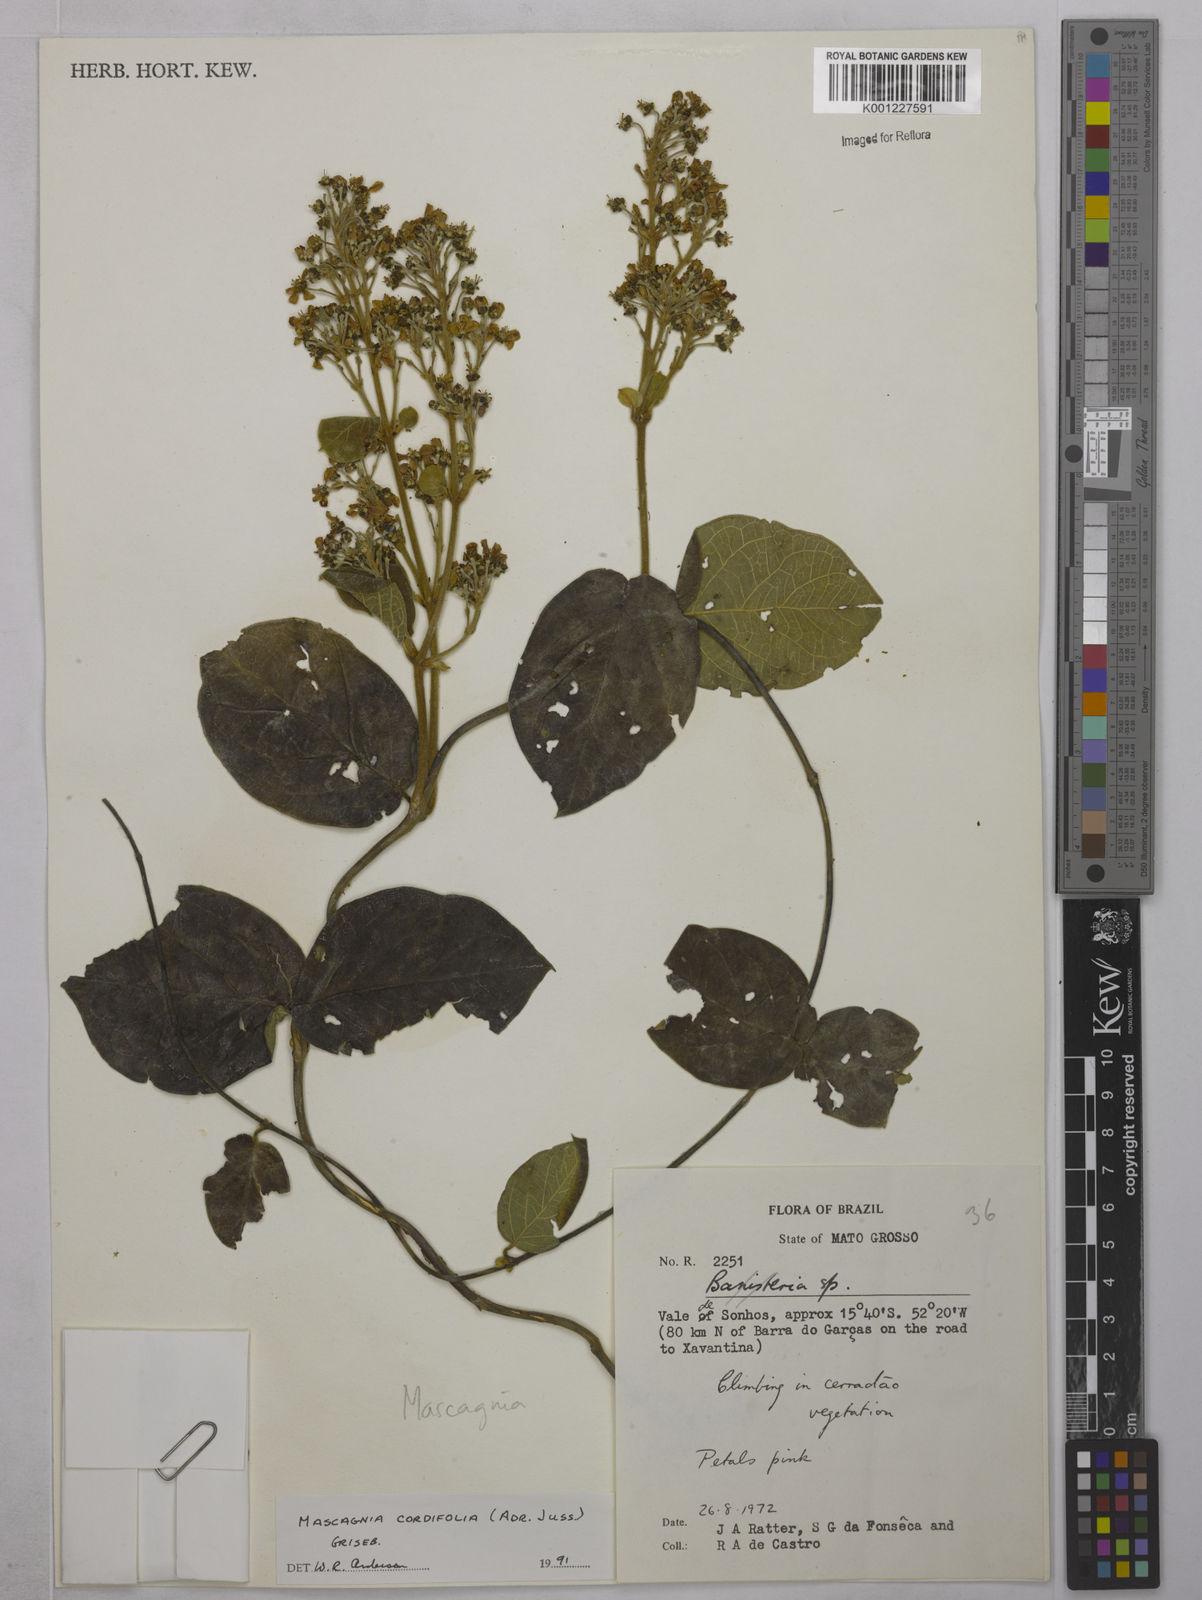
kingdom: Plantae
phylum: Tracheophyta
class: Magnoliopsida
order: Malpighiales
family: Malpighiaceae
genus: Mascagnia
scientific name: Mascagnia cordifolia
